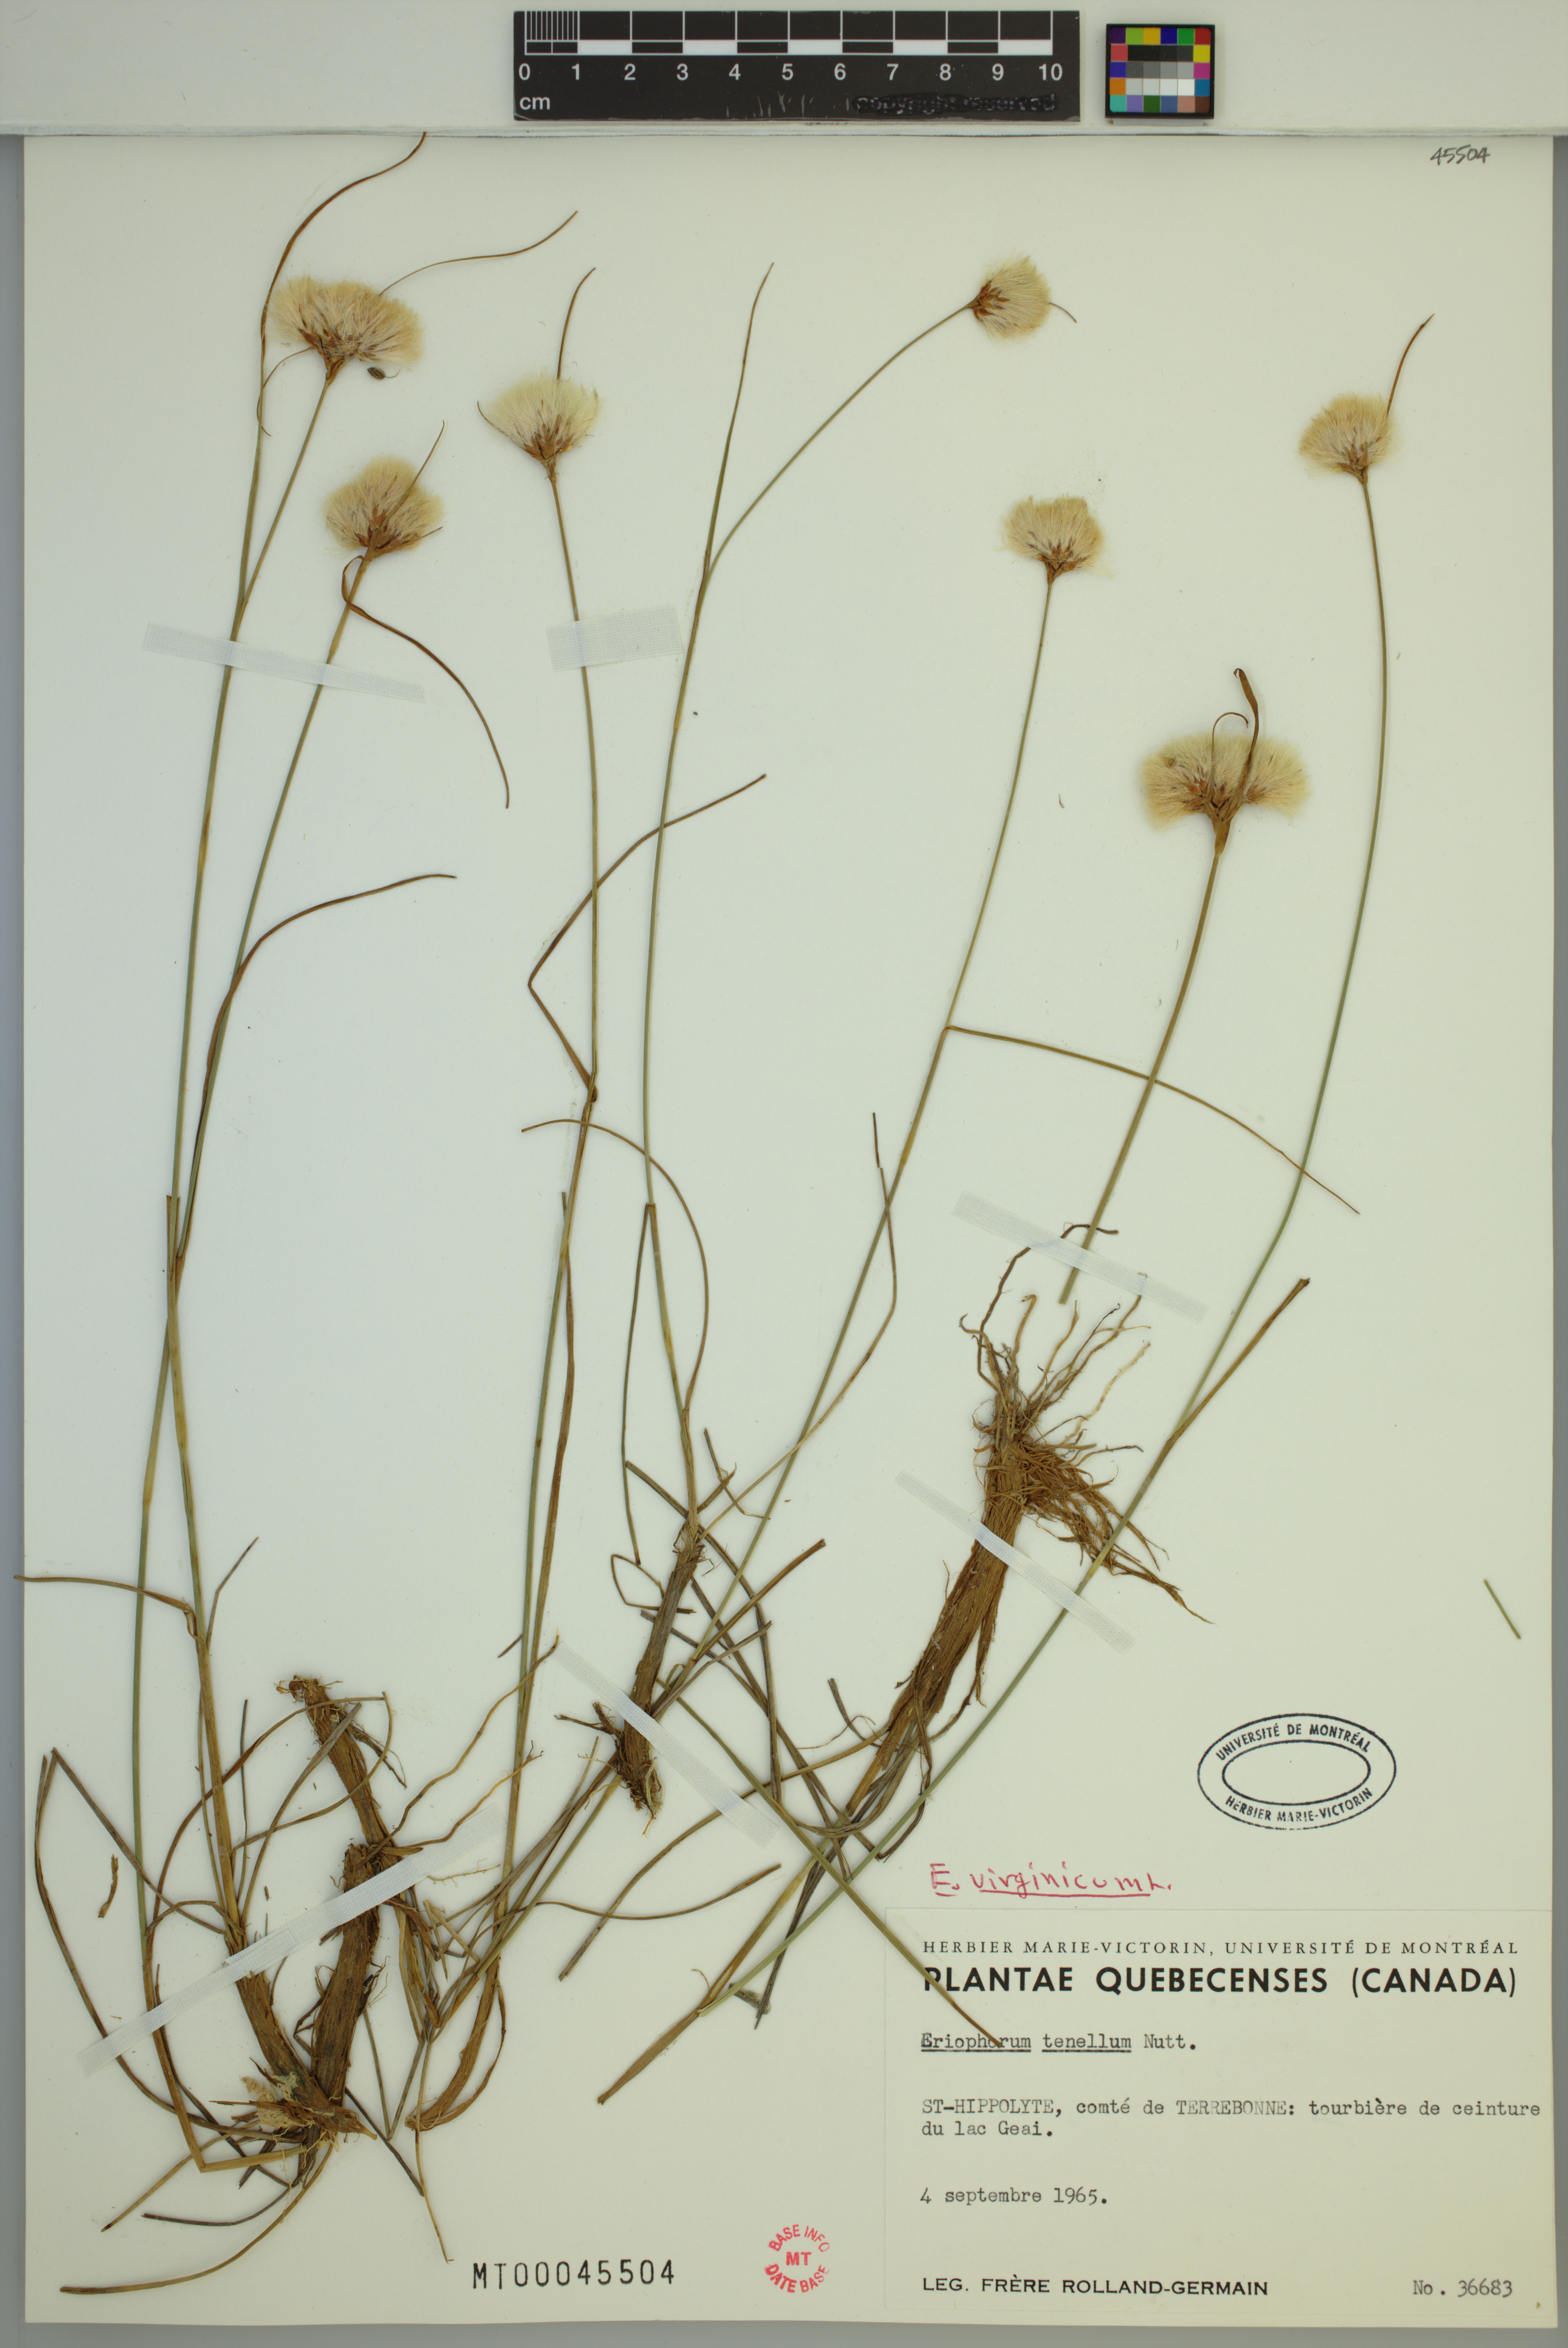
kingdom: Plantae
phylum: Tracheophyta
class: Liliopsida
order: Poales
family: Cyperaceae
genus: Eriophorum
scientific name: Eriophorum virginicum
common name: Tawny cottongrass
